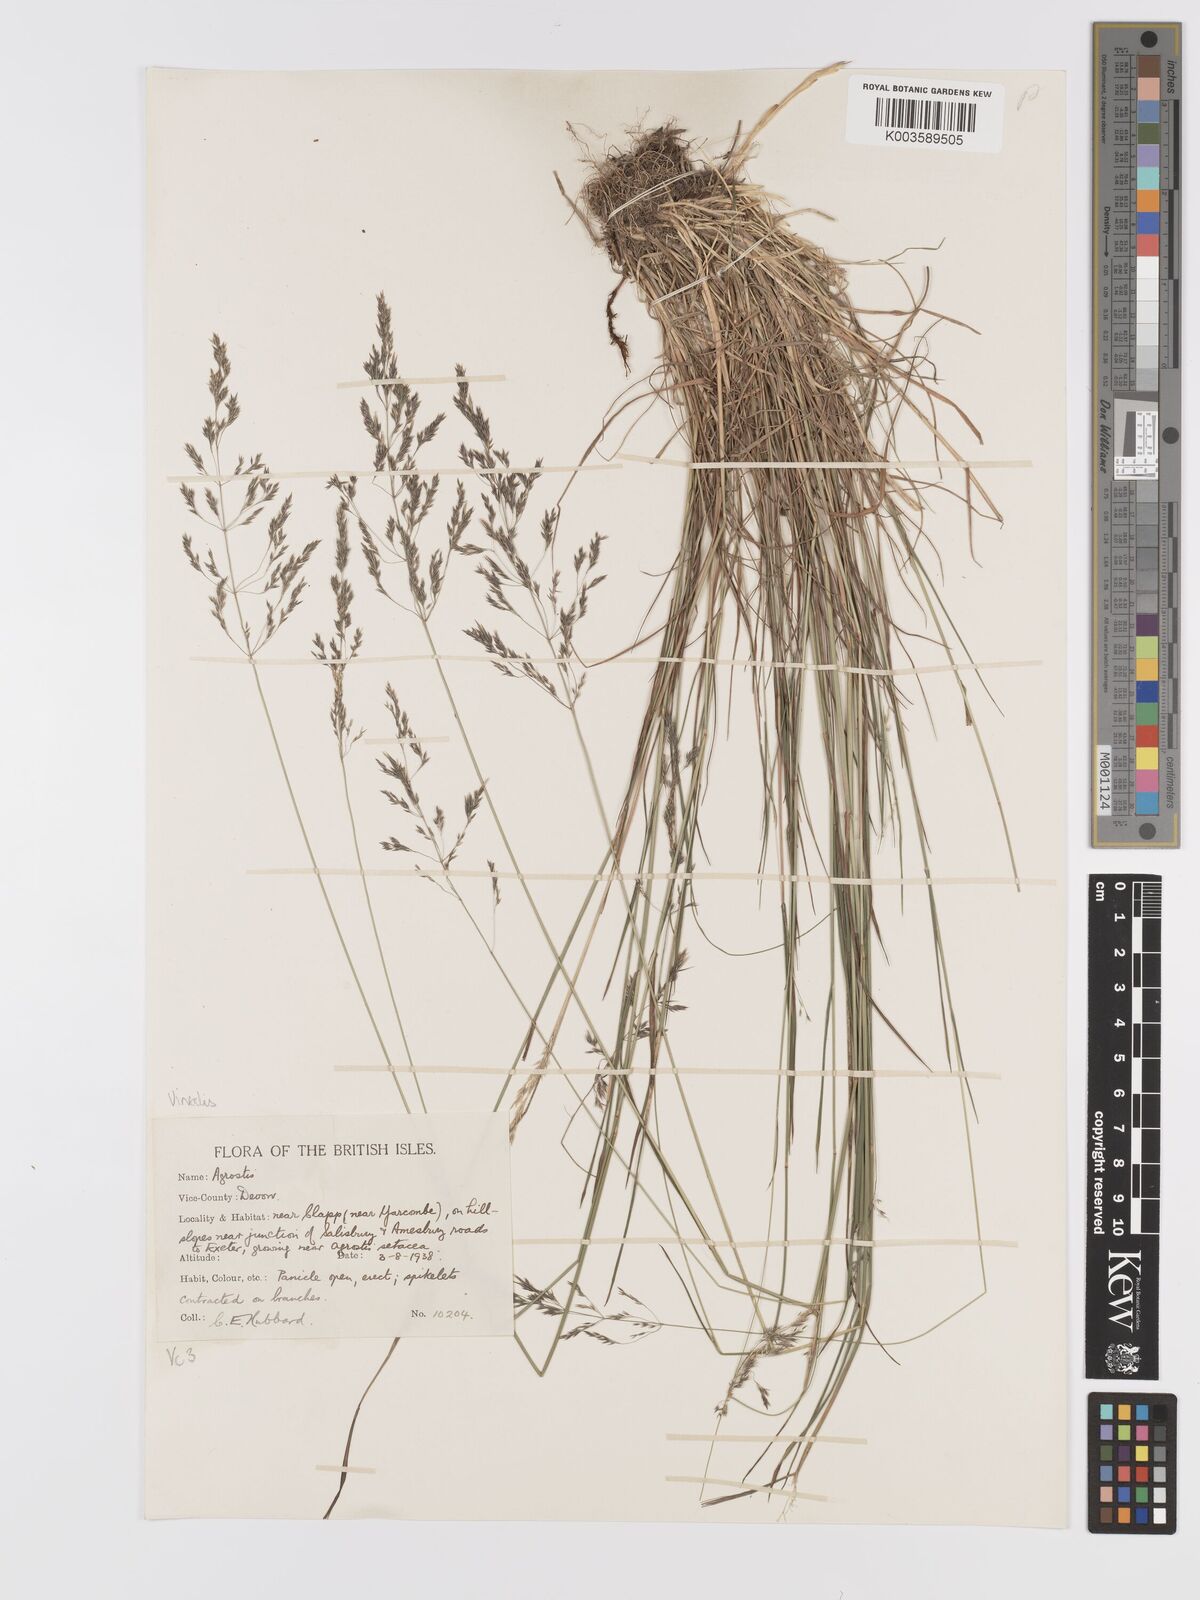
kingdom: Plantae
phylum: Tracheophyta
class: Liliopsida
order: Poales
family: Poaceae
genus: Agrostis
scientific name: Agrostis
